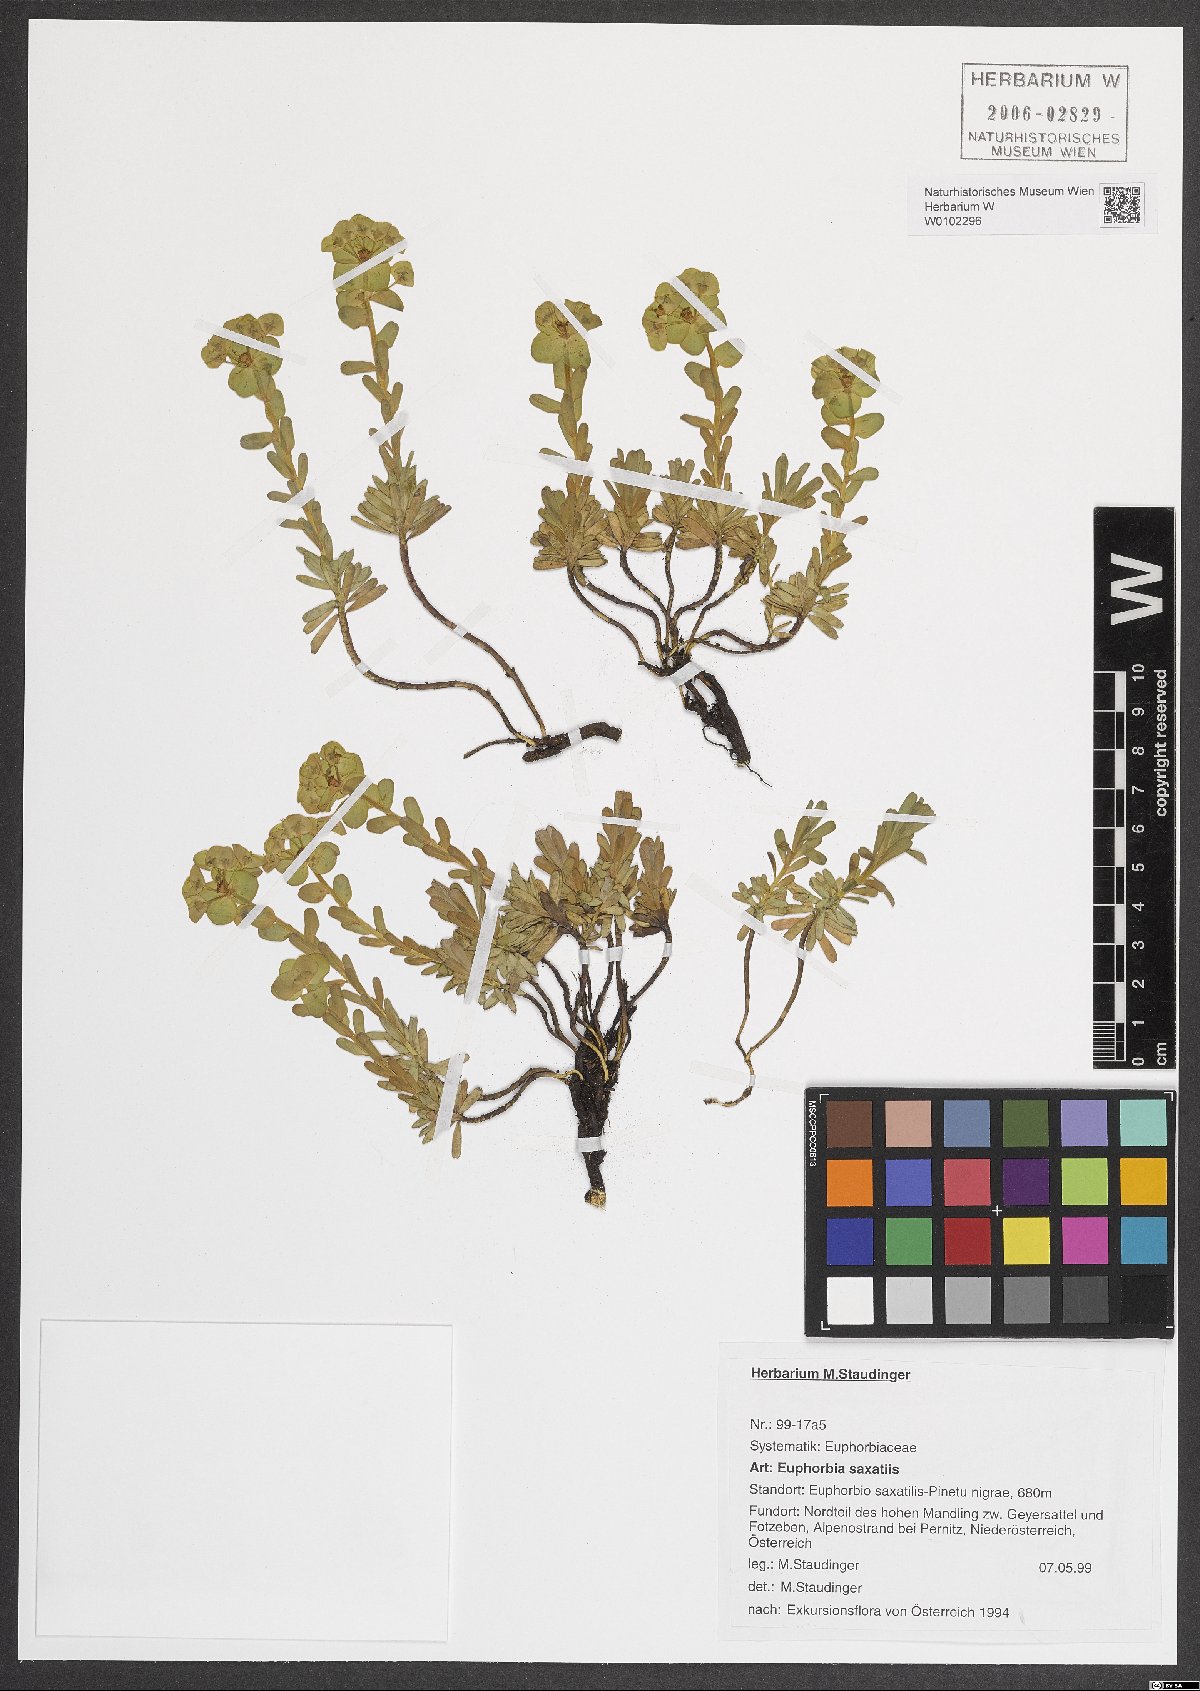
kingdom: Plantae
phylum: Tracheophyta
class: Magnoliopsida
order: Malpighiales
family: Euphorbiaceae
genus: Euphorbia
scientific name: Euphorbia saxatilis
